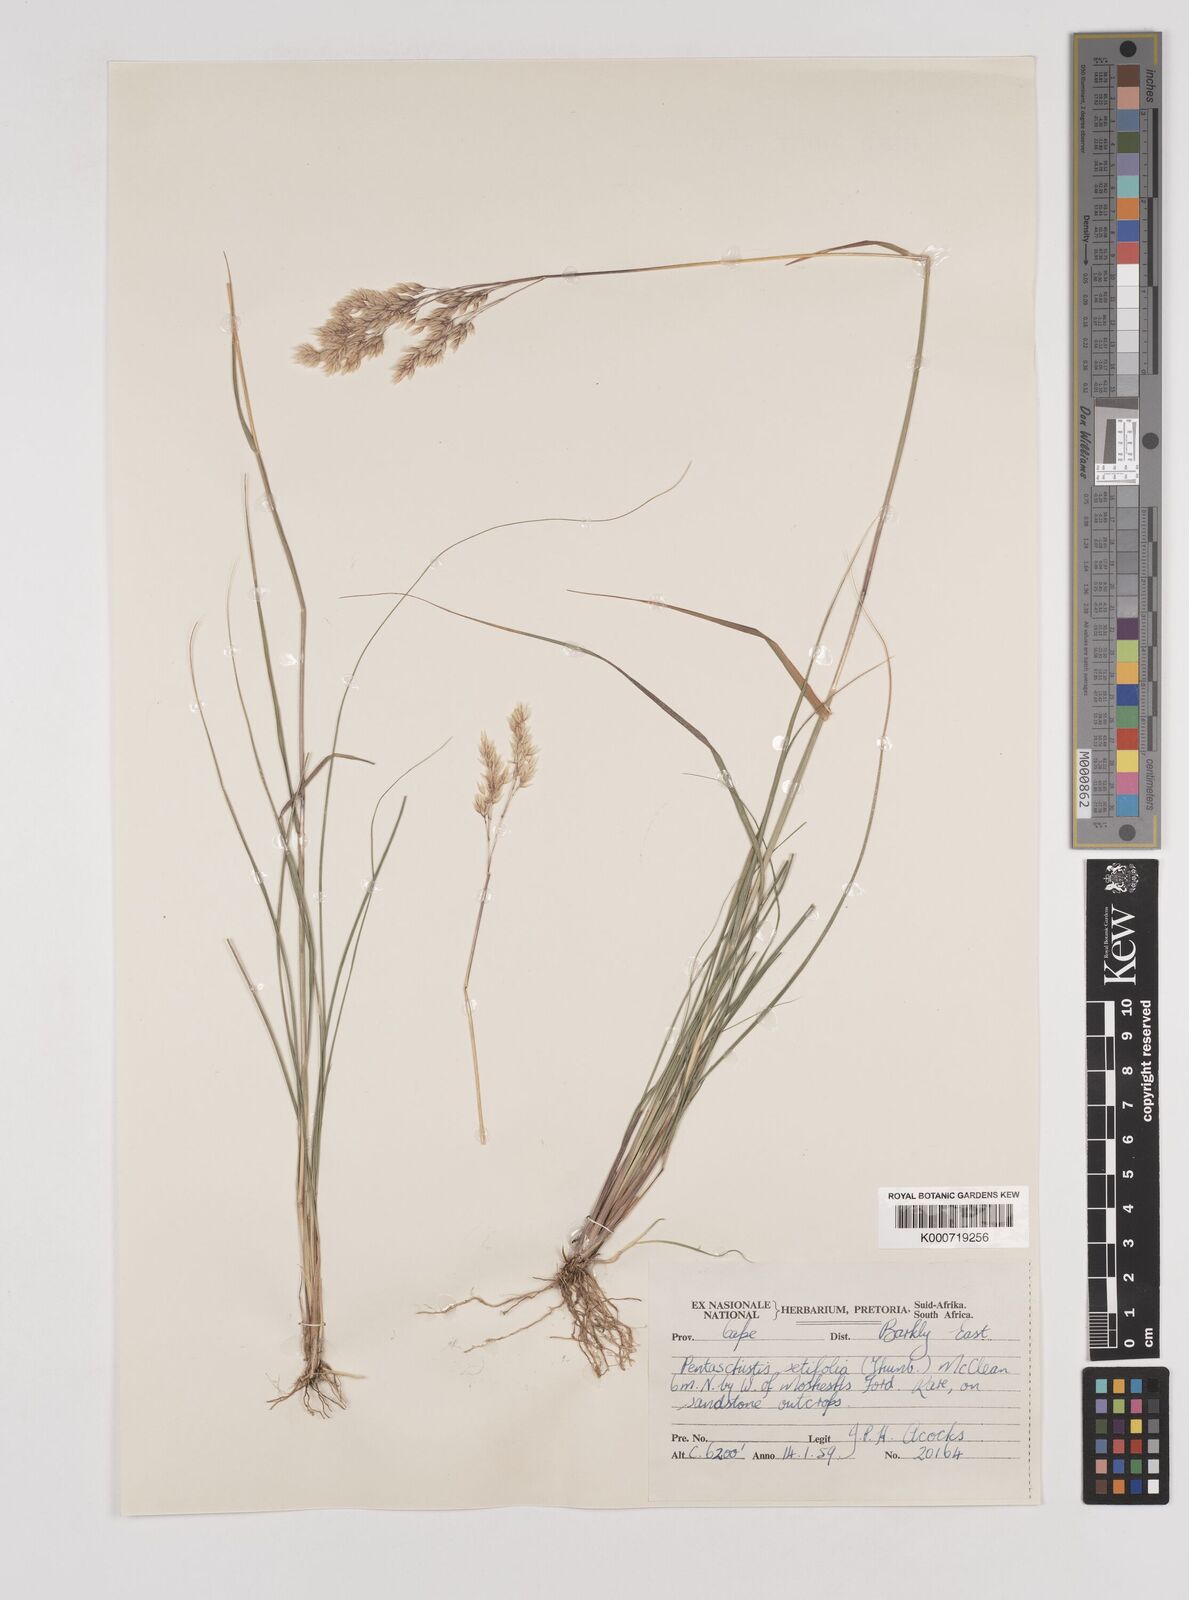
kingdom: Plantae
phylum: Tracheophyta
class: Liliopsida
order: Poales
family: Poaceae
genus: Pentameris
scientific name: Pentameris setifolia
